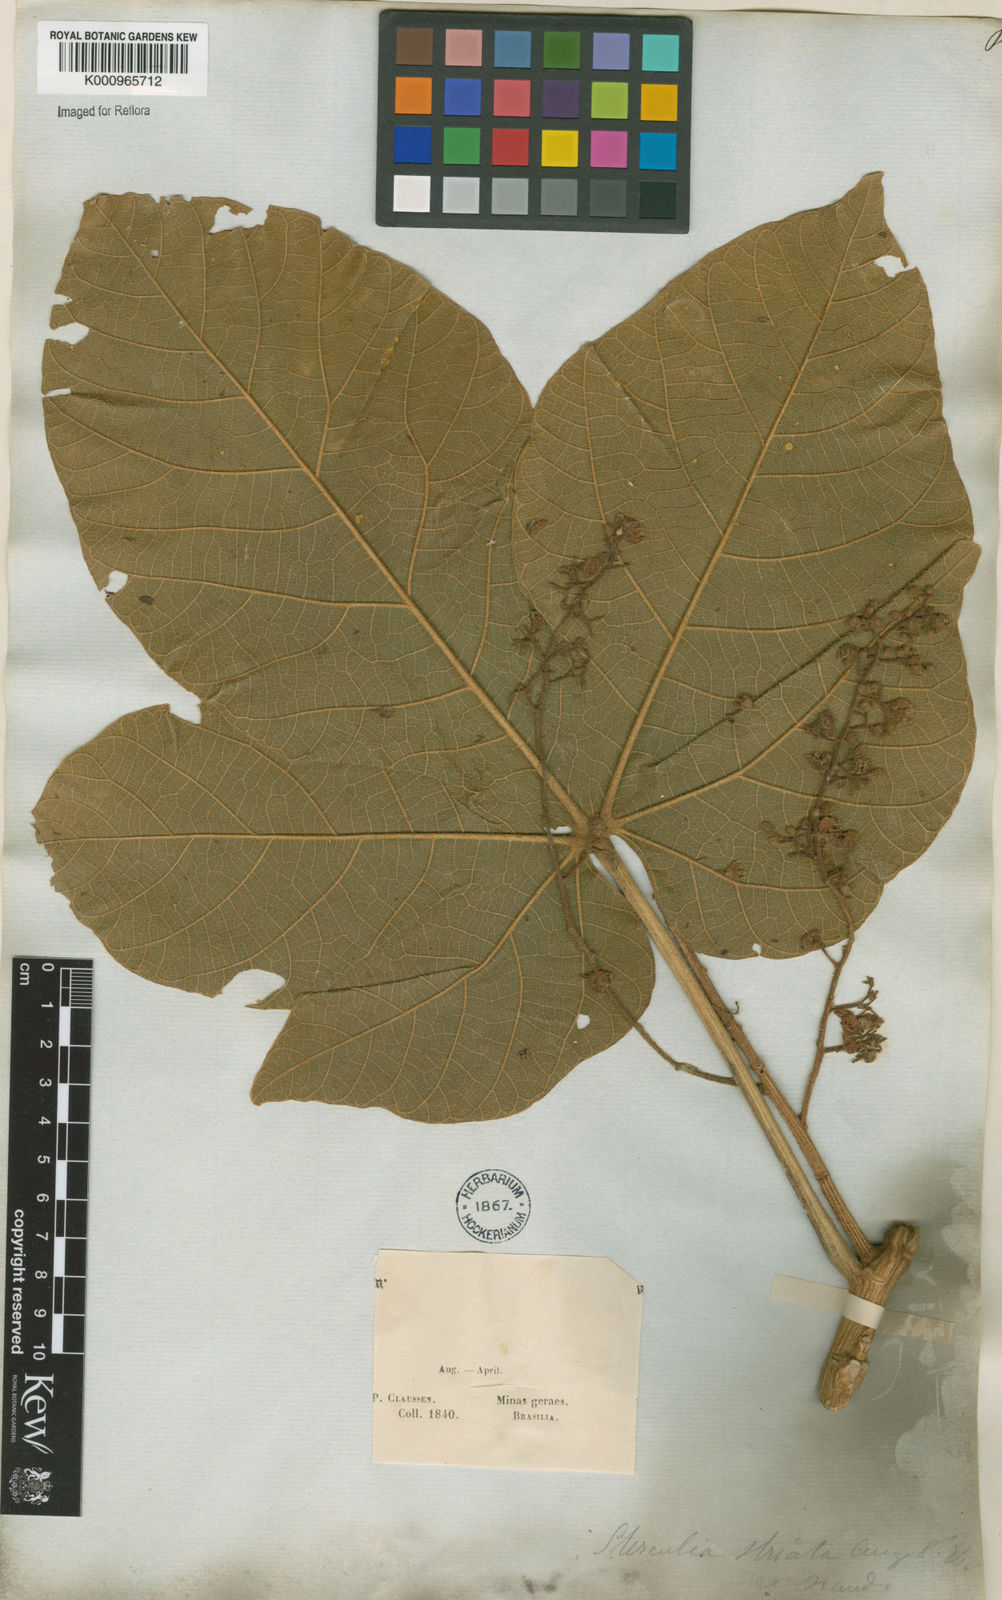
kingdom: Plantae
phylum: Tracheophyta
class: Magnoliopsida
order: Malvales
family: Malvaceae
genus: Sterculia
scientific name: Sterculia striata
